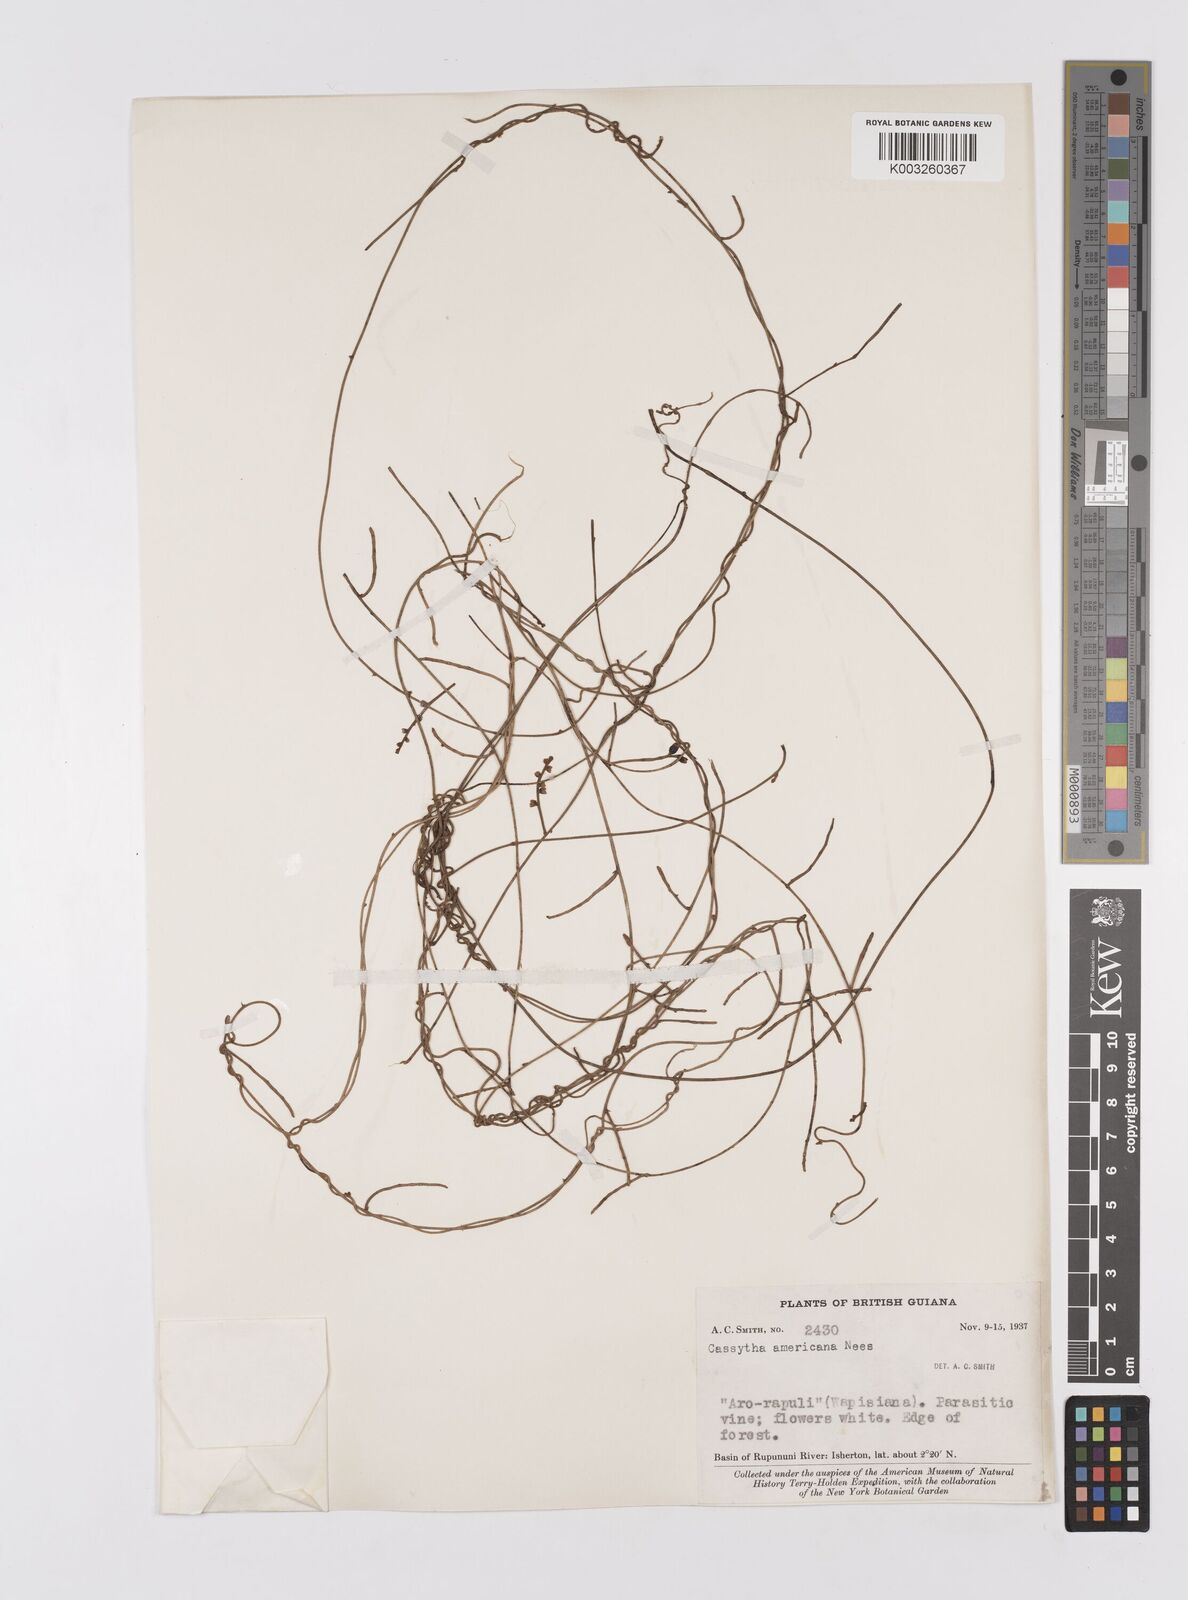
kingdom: Plantae
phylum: Tracheophyta
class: Magnoliopsida
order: Laurales
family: Lauraceae
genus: Cassytha
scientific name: Cassytha filiformis
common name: Dodder-laurel
